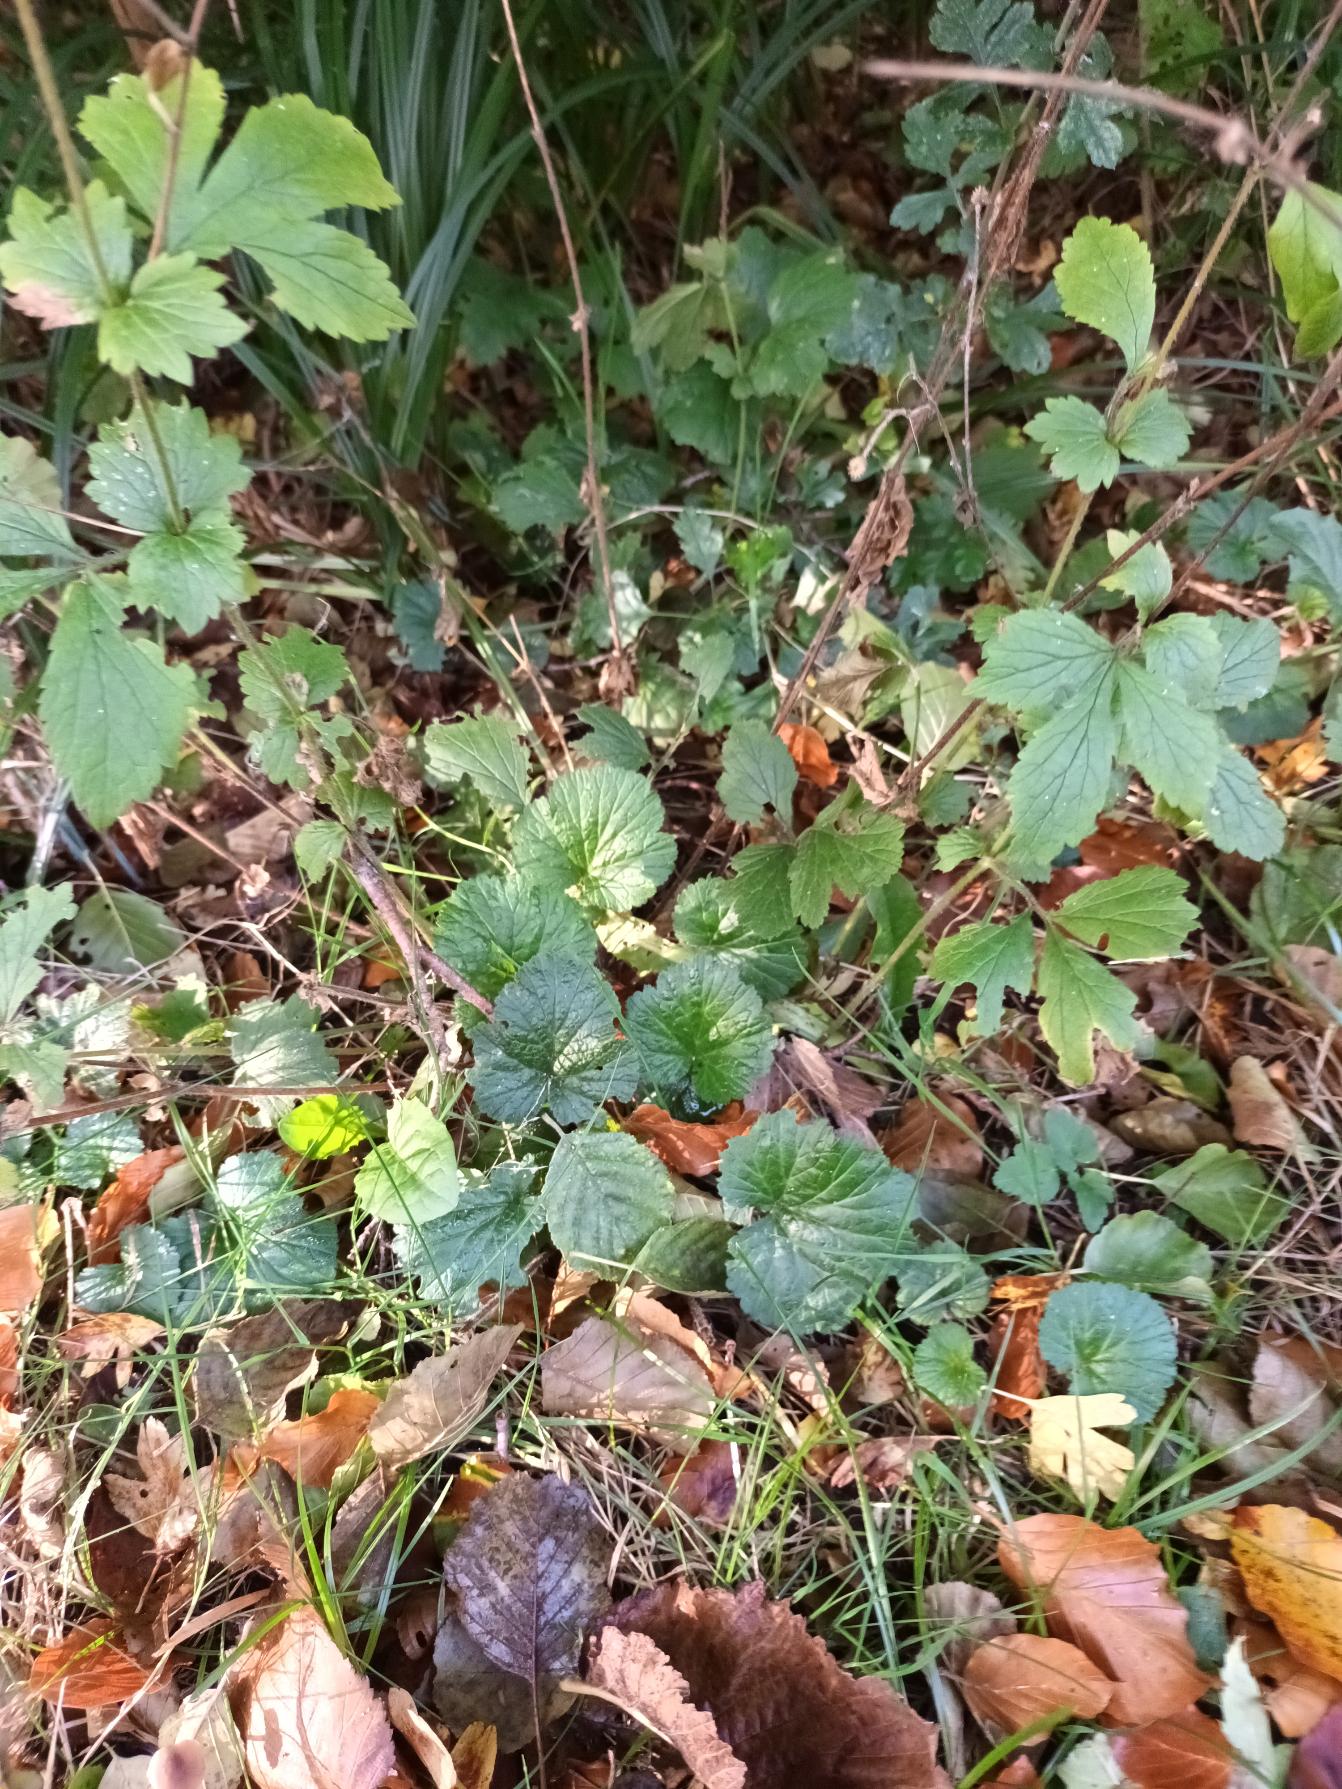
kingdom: Plantae
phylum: Tracheophyta
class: Magnoliopsida
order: Rosales
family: Rosaceae
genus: Geum
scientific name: Geum urbanum
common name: Feber-nellikerod
